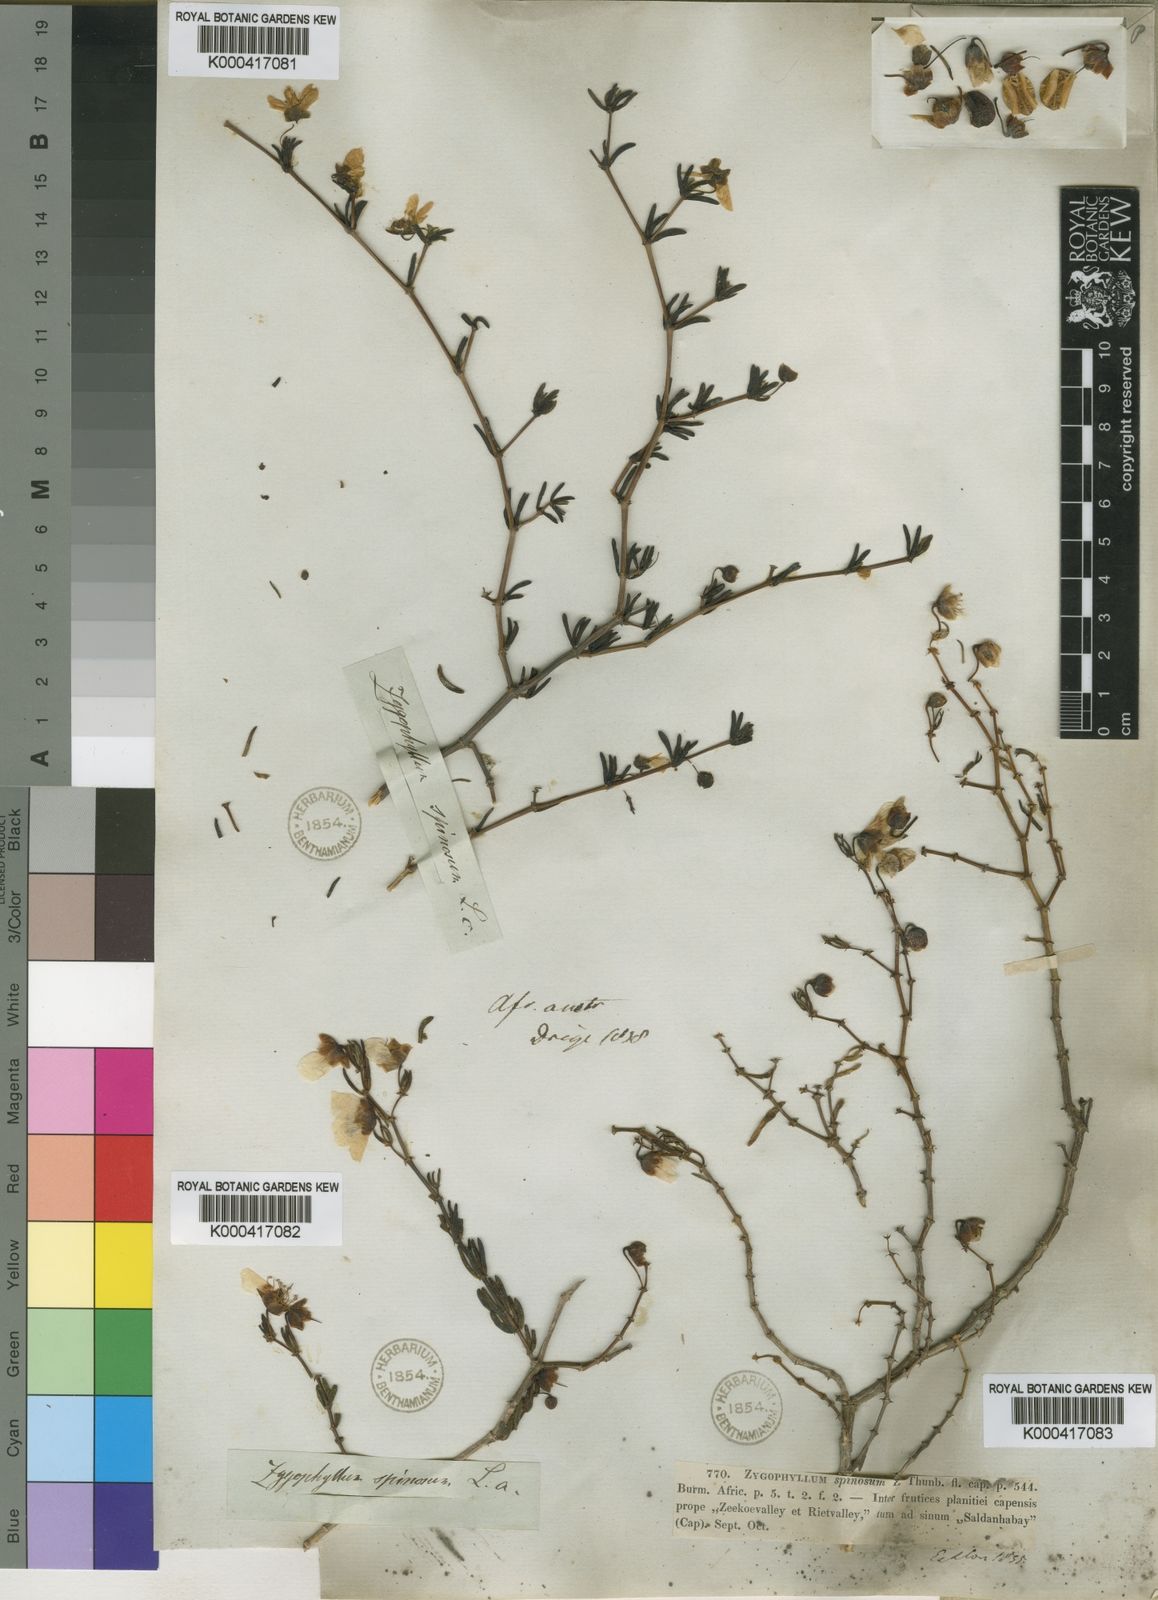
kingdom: Plantae
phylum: Tracheophyta
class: Magnoliopsida
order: Zygophyllales
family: Zygophyllaceae
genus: Roepera
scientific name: Roepera spinosa
